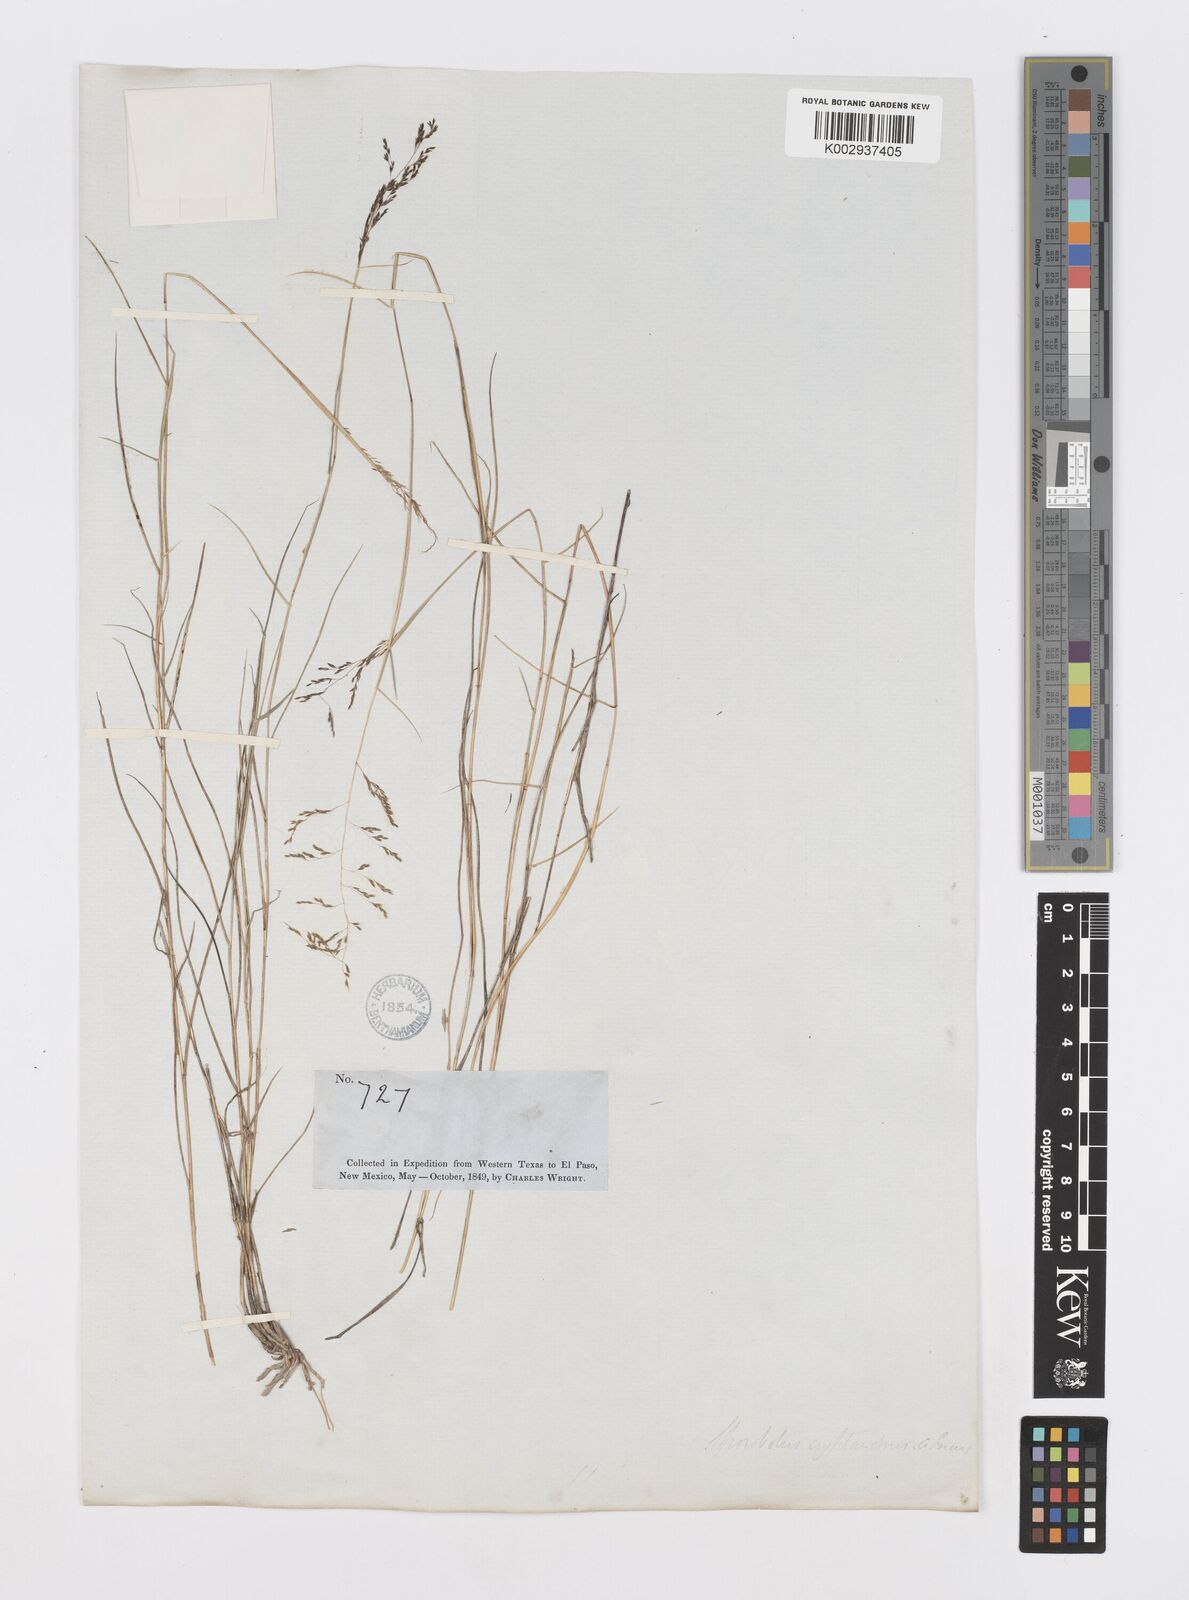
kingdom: Plantae
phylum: Tracheophyta
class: Liliopsida
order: Poales
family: Poaceae
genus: Sporobolus
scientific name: Sporobolus cryptandrus
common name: Sand dropseed
